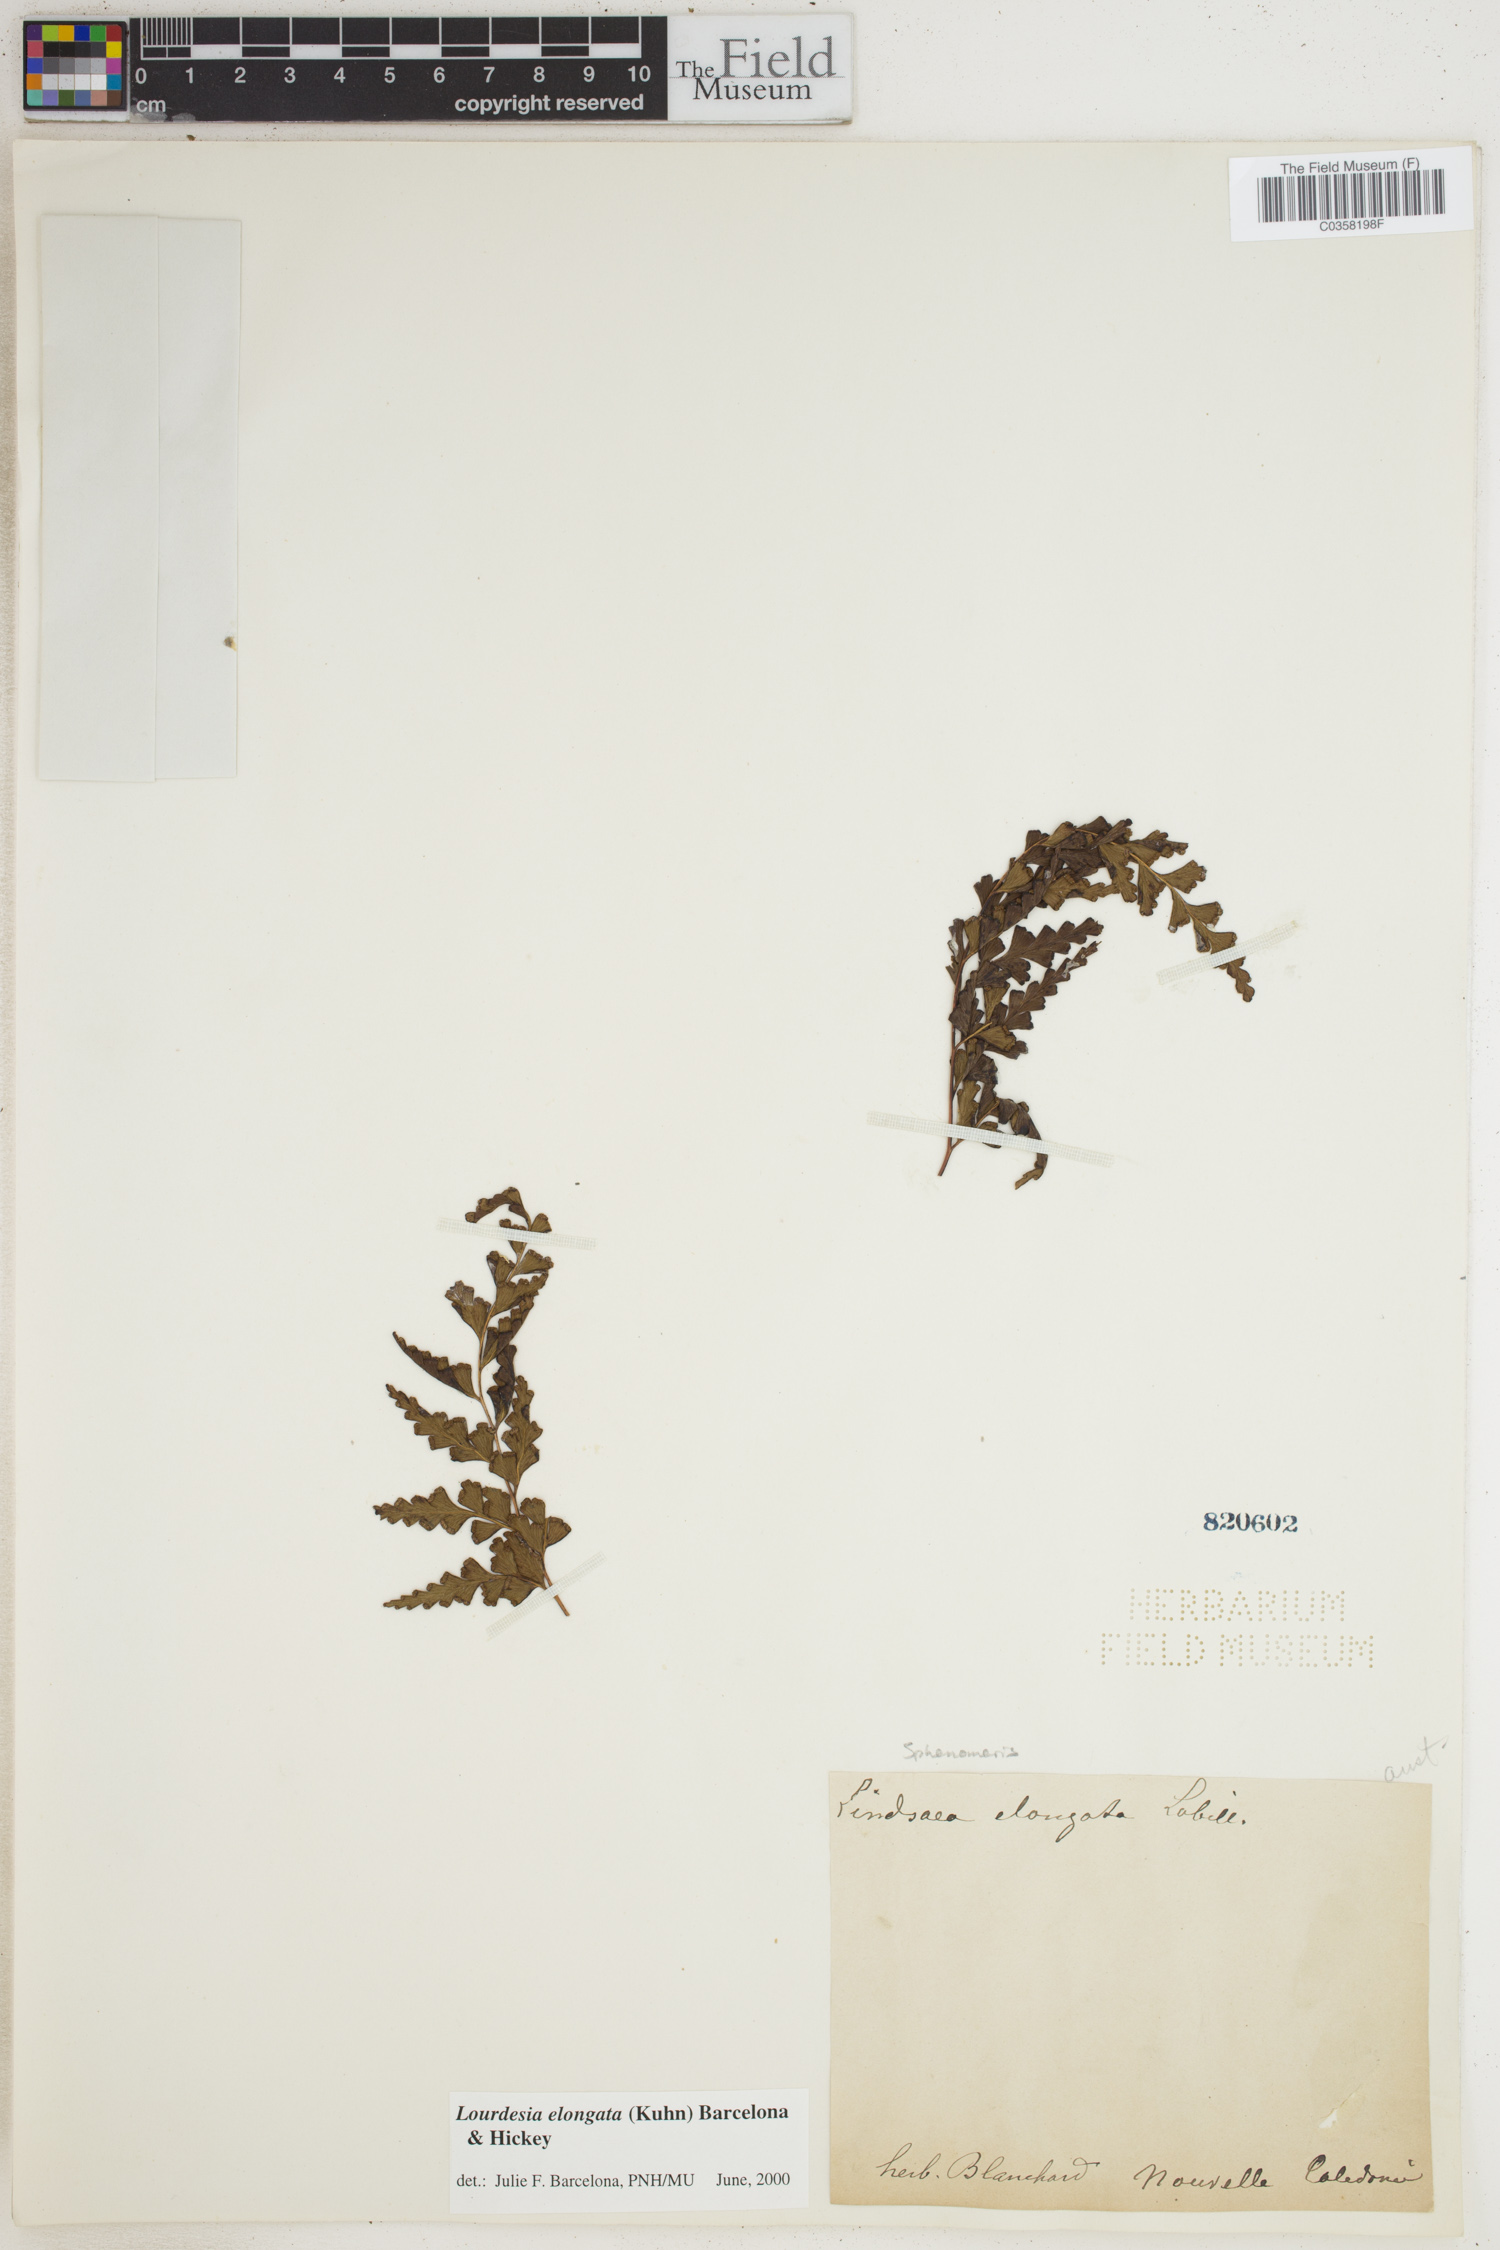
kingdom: Plantae
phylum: Tracheophyta
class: Polypodiopsida
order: Polypodiales
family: Lindsaeaceae
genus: Odontosoria
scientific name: Odontosoria deltoidea
